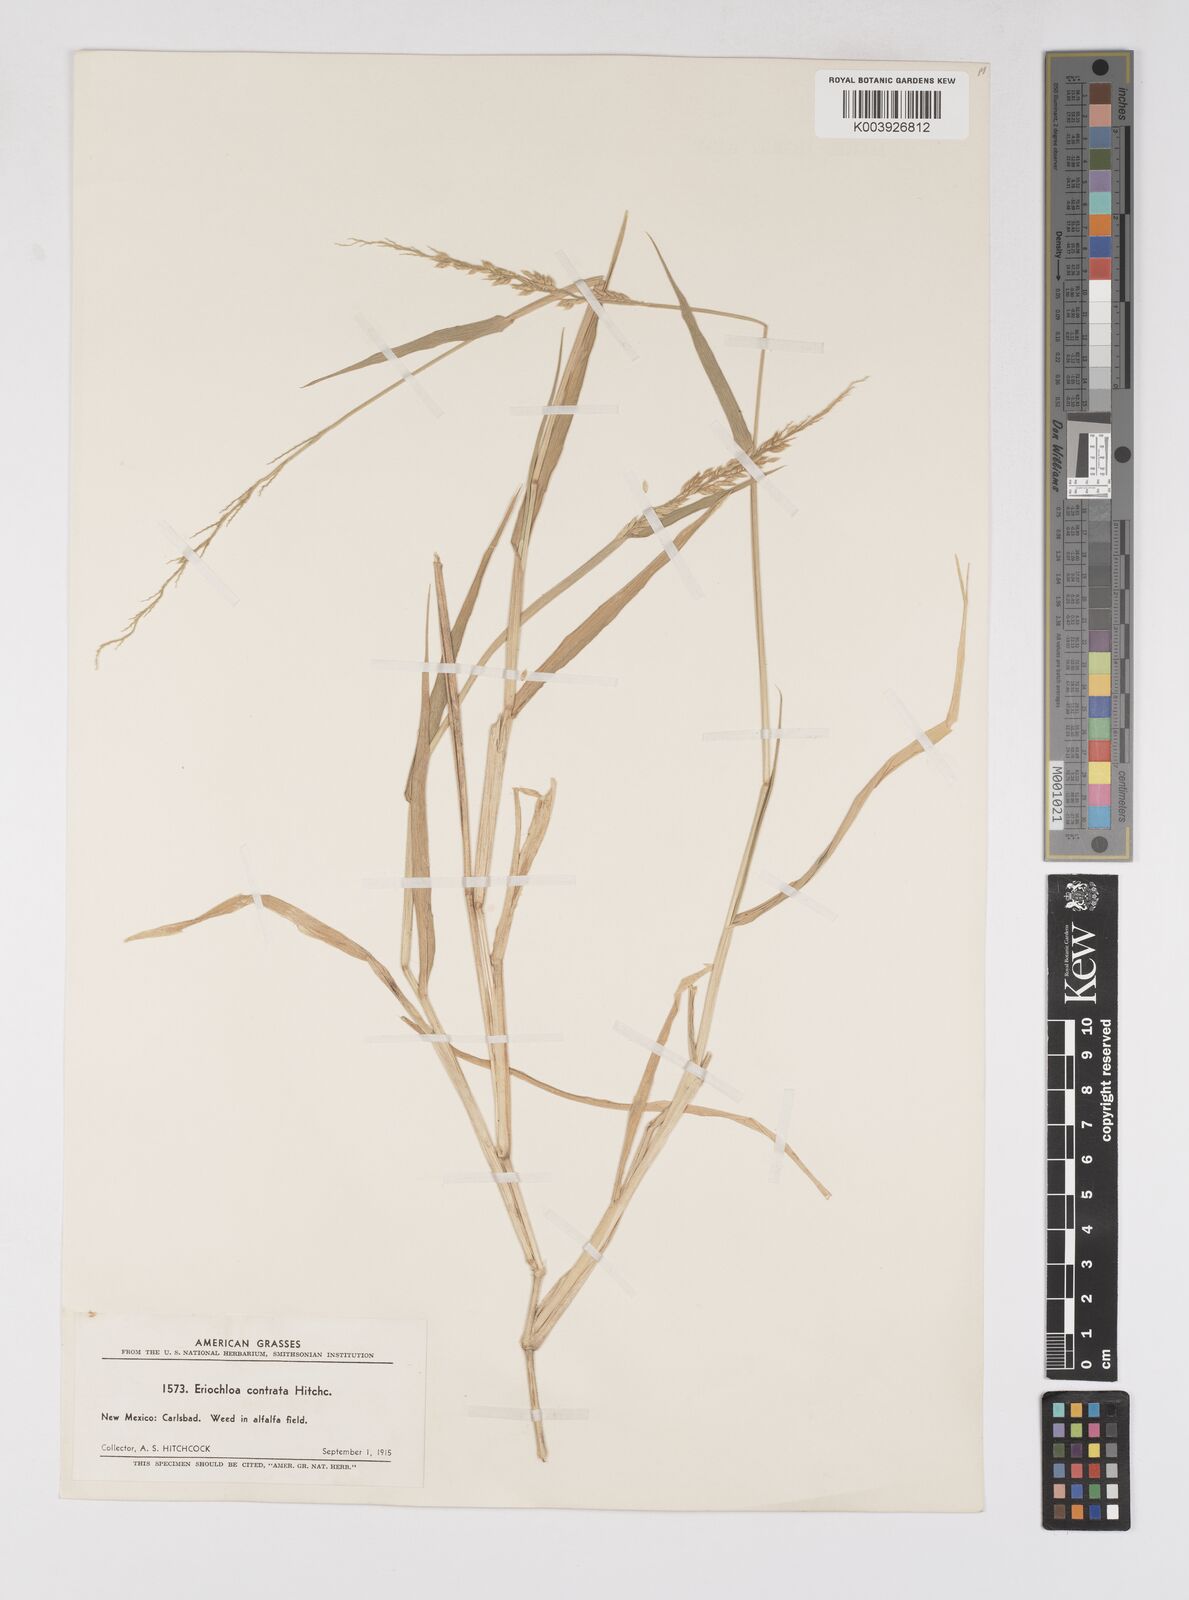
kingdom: Plantae
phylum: Tracheophyta
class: Liliopsida
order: Poales
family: Poaceae
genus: Eriochloa
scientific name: Eriochloa contracta
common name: Prairie cup grass
